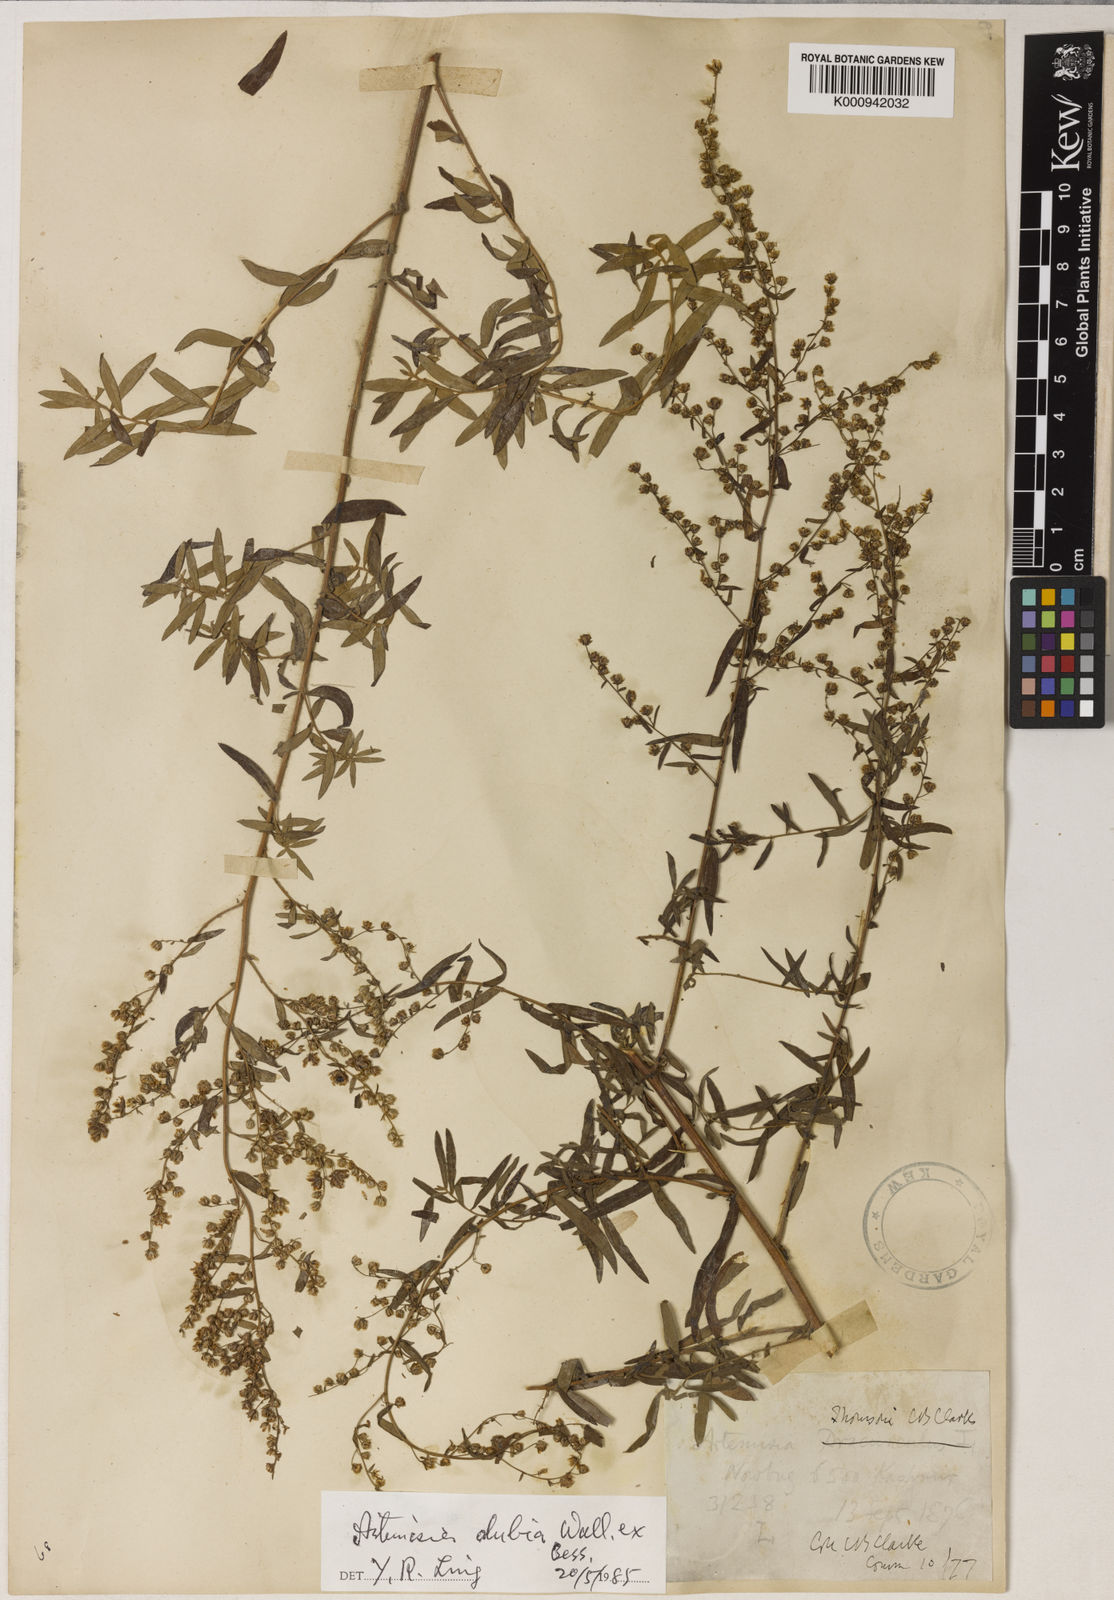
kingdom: Plantae
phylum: Tracheophyta
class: Magnoliopsida
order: Asterales
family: Asteraceae
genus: Artemisia
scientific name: Artemisia dubia
